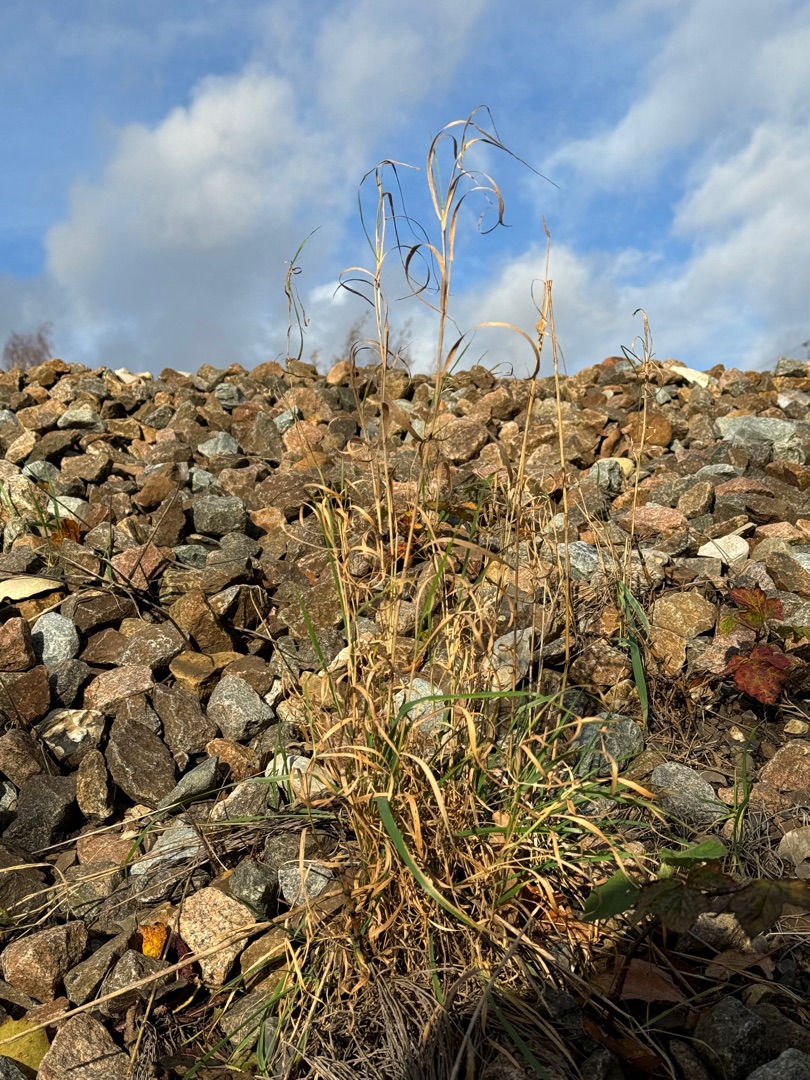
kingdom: Plantae
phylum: Tracheophyta
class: Liliopsida
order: Poales
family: Poaceae
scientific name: Poaceae
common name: Græsfamilien
